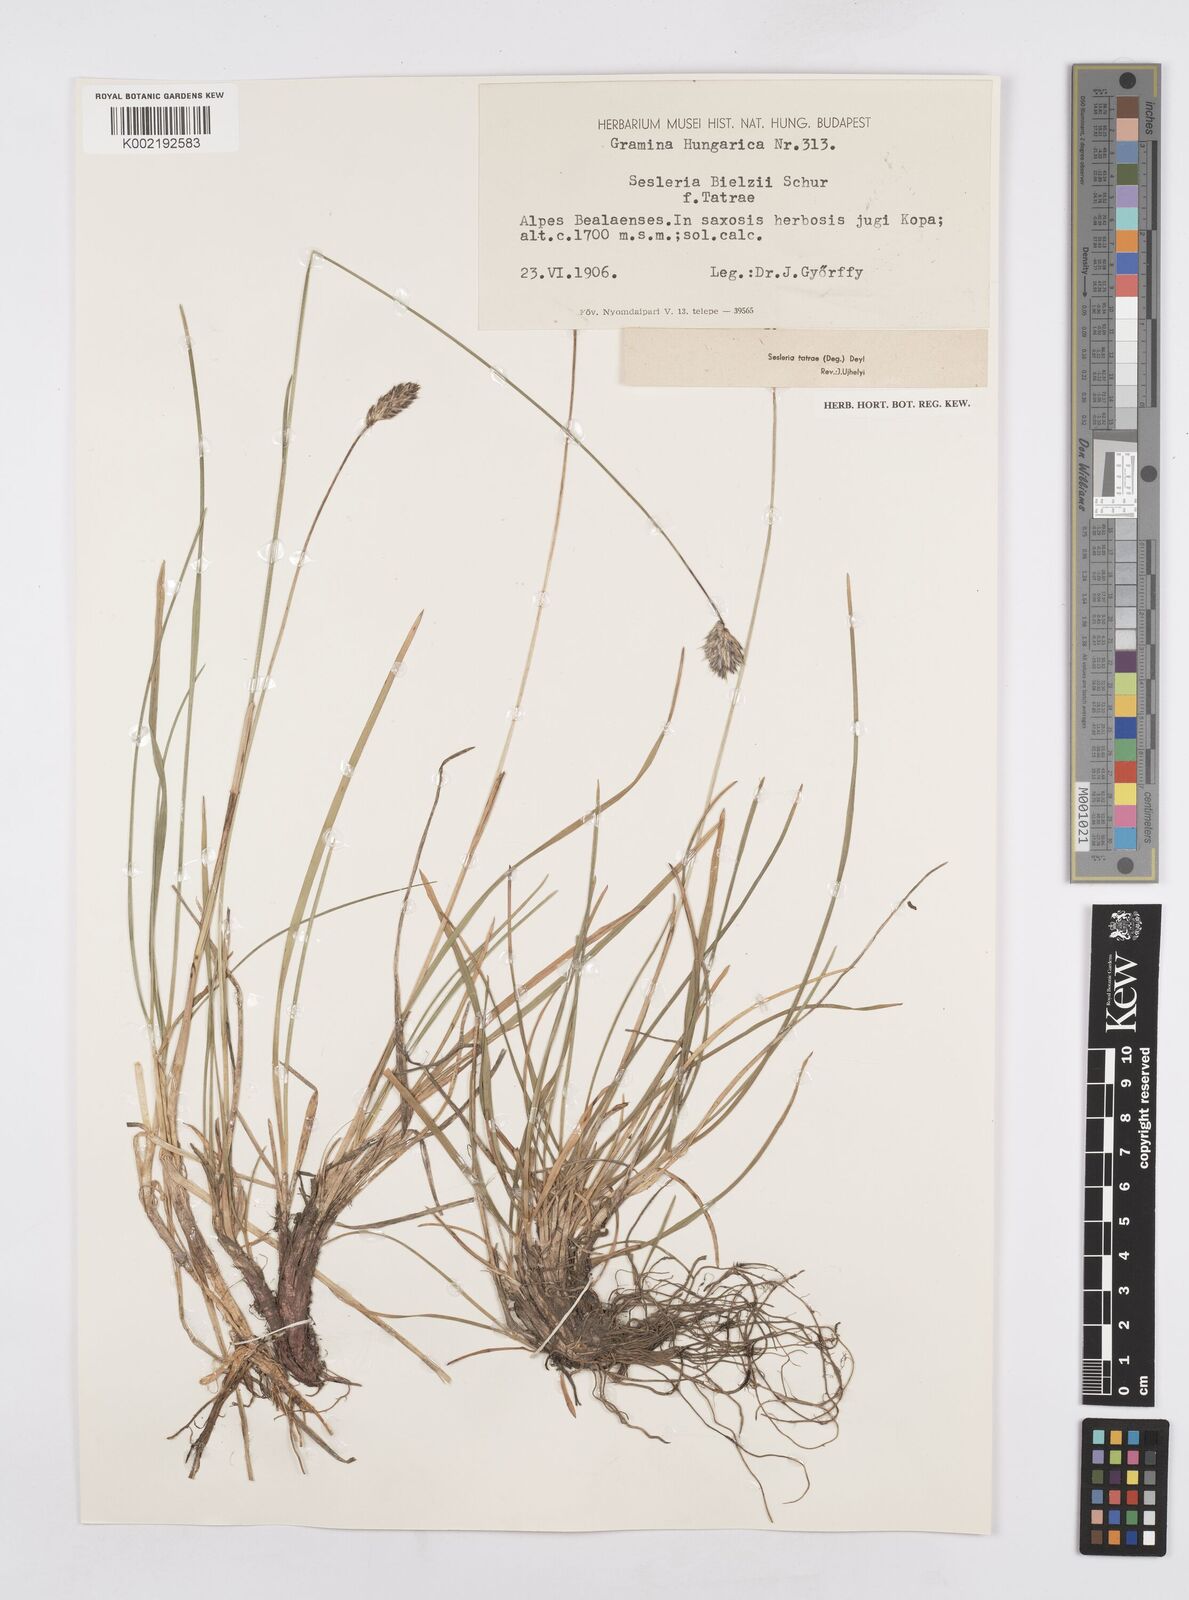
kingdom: Plantae
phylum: Tracheophyta
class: Liliopsida
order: Poales
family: Poaceae
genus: Sesleria
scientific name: Sesleria tatrae
